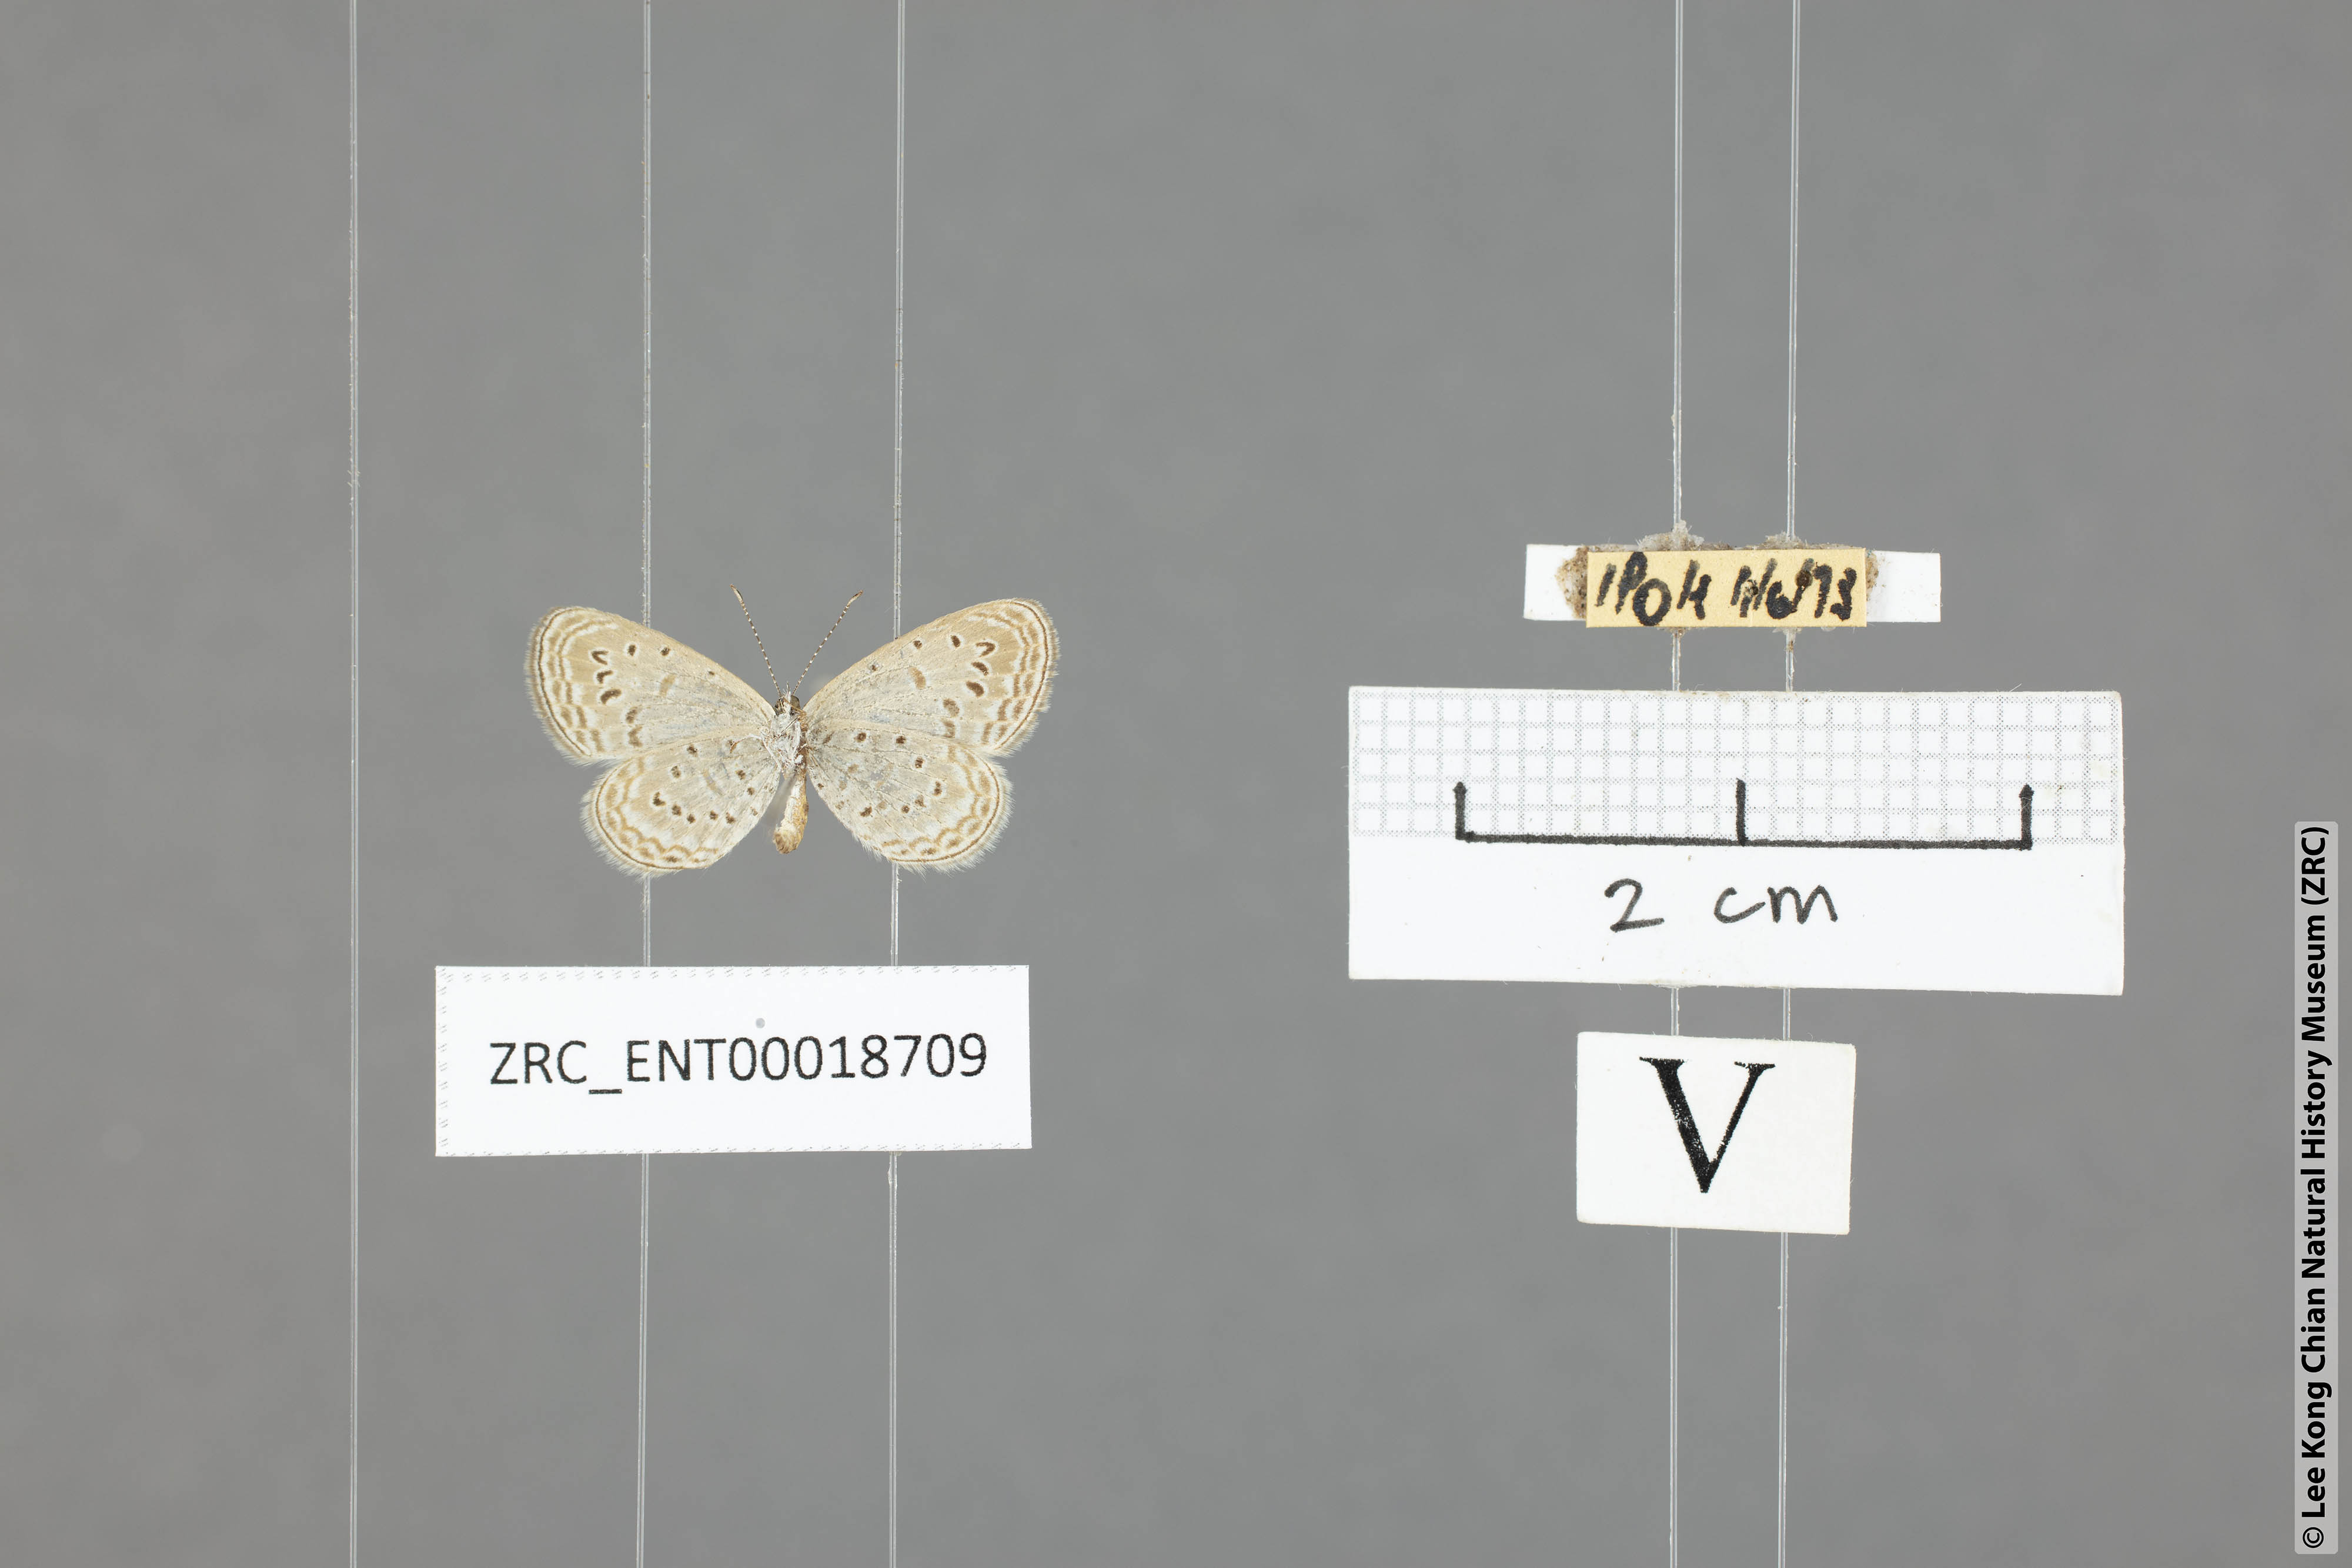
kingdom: Animalia
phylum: Arthropoda
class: Insecta
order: Lepidoptera
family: Lycaenidae
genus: Zizula
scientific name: Zizula hylax
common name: Gaika blue
